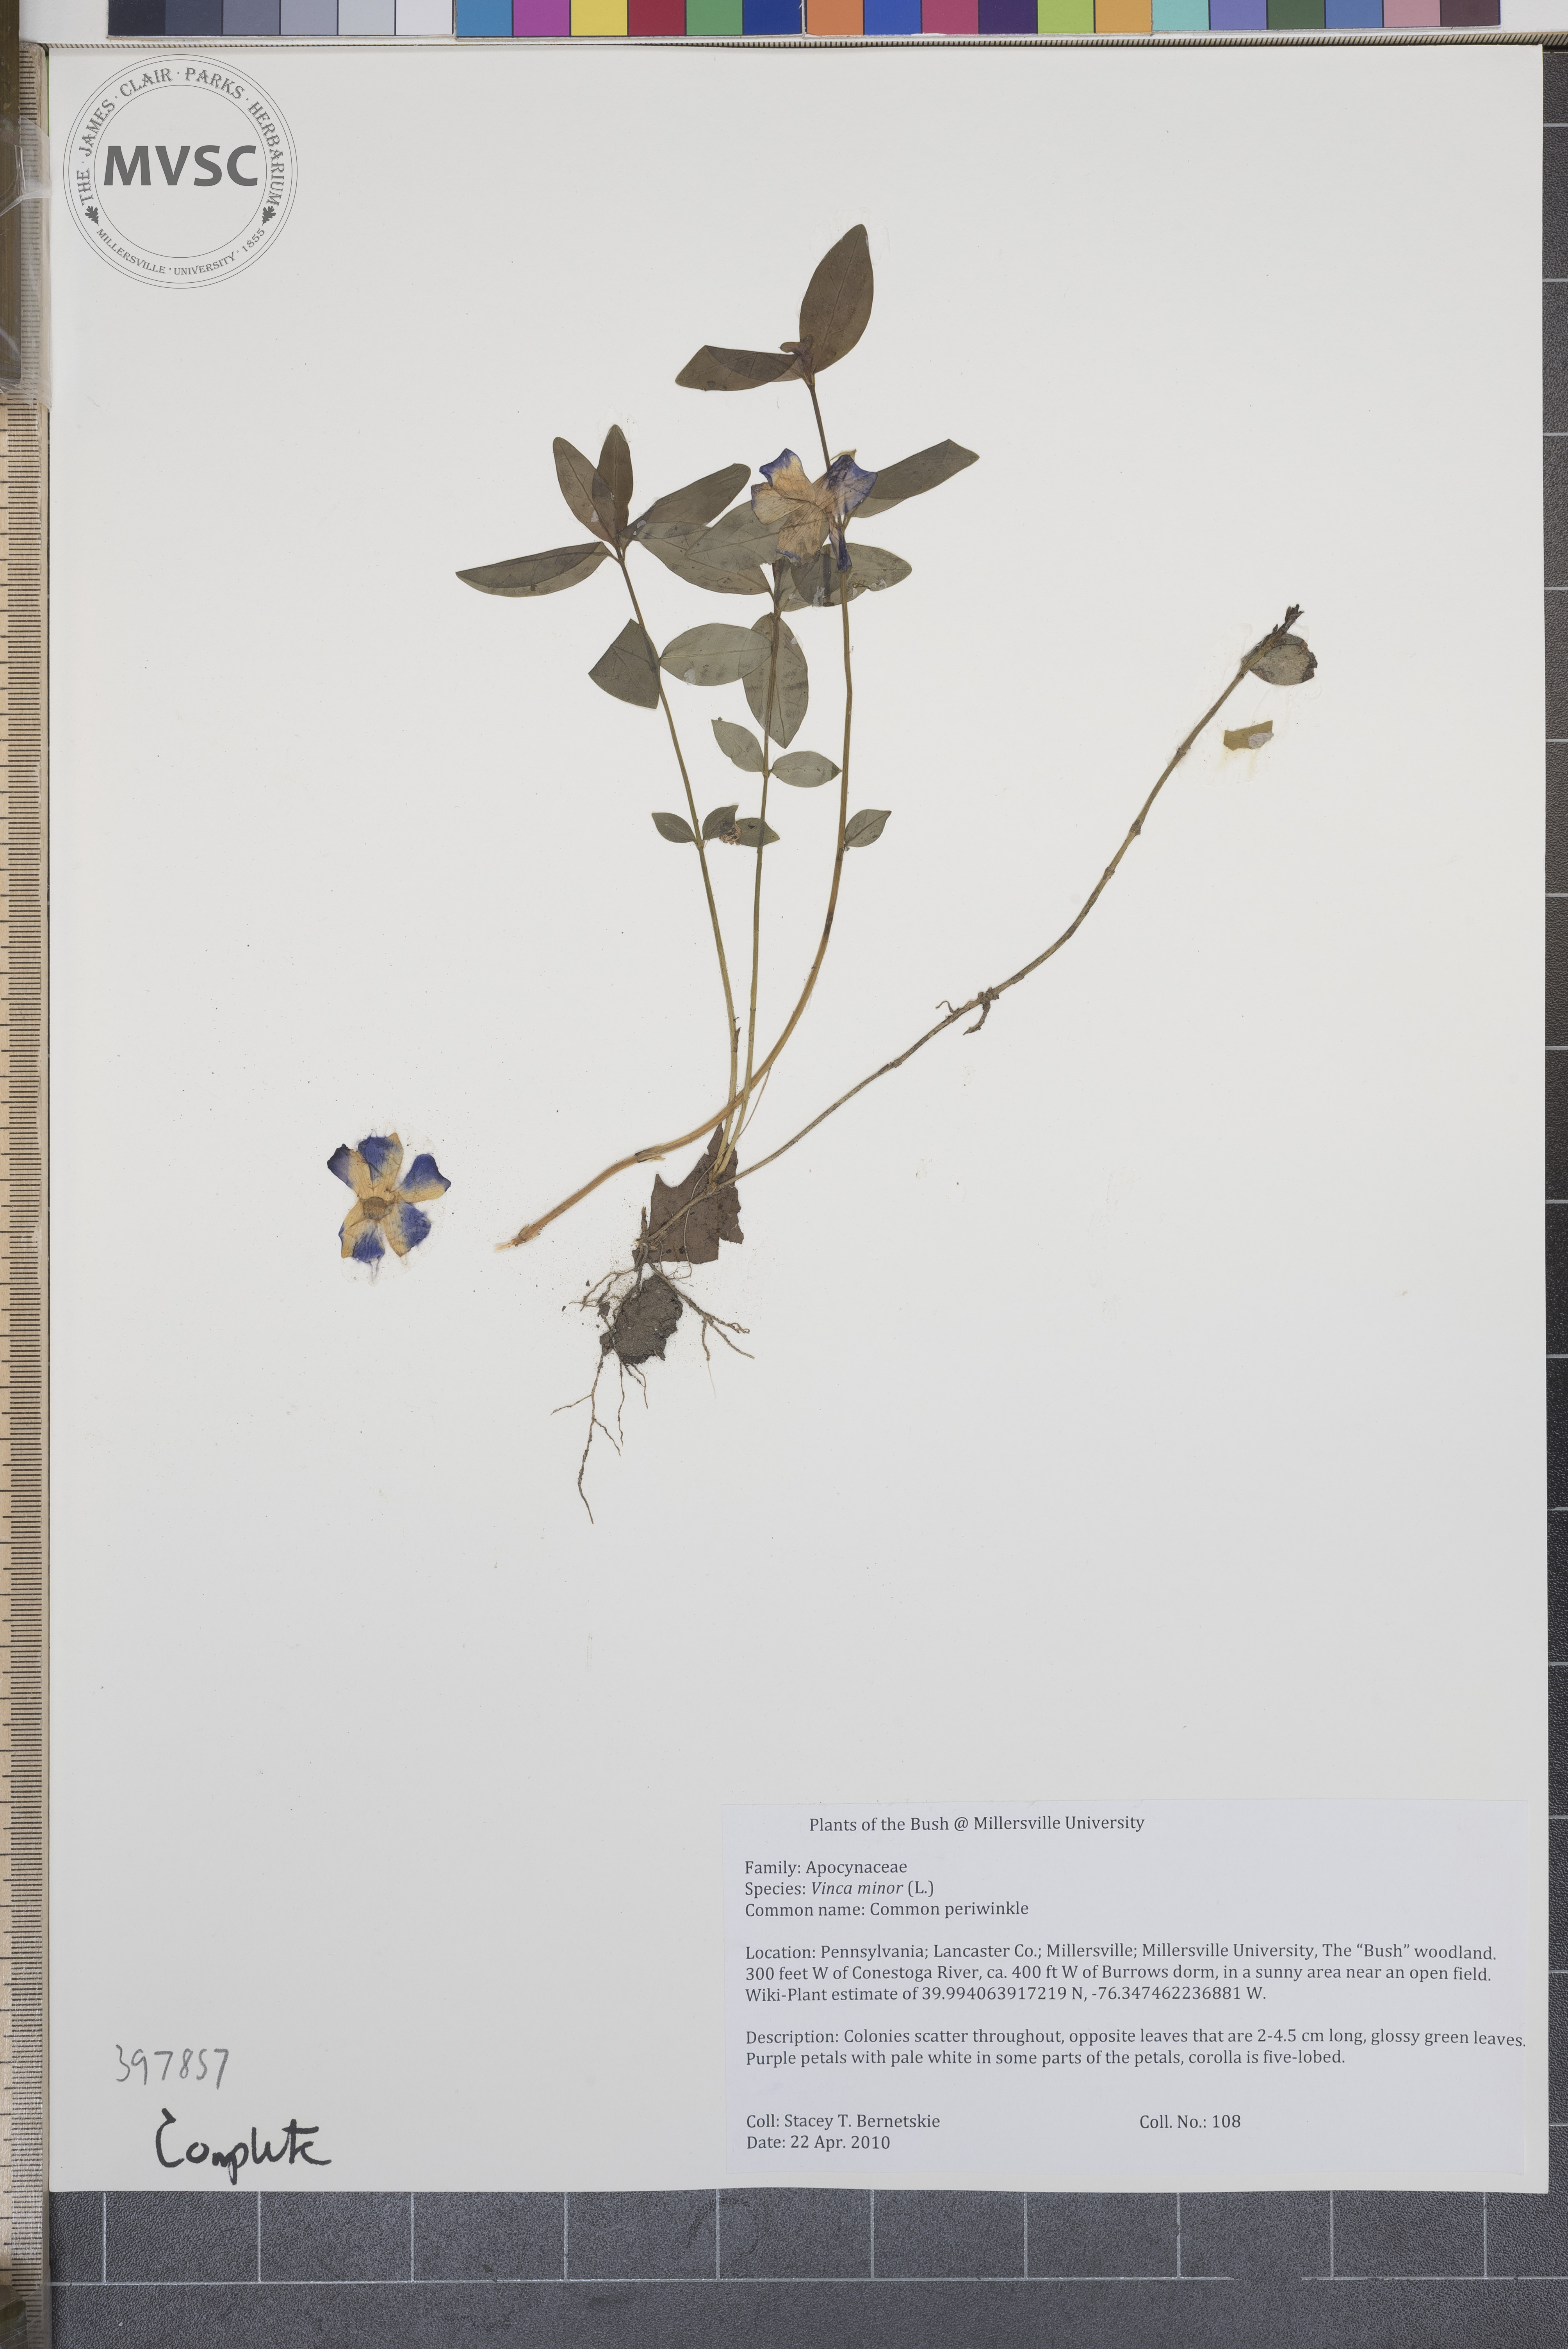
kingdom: Plantae
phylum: Tracheophyta
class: Magnoliopsida
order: Gentianales
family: Apocynaceae
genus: Vinca
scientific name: Vinca minor
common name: Common periwinkle
